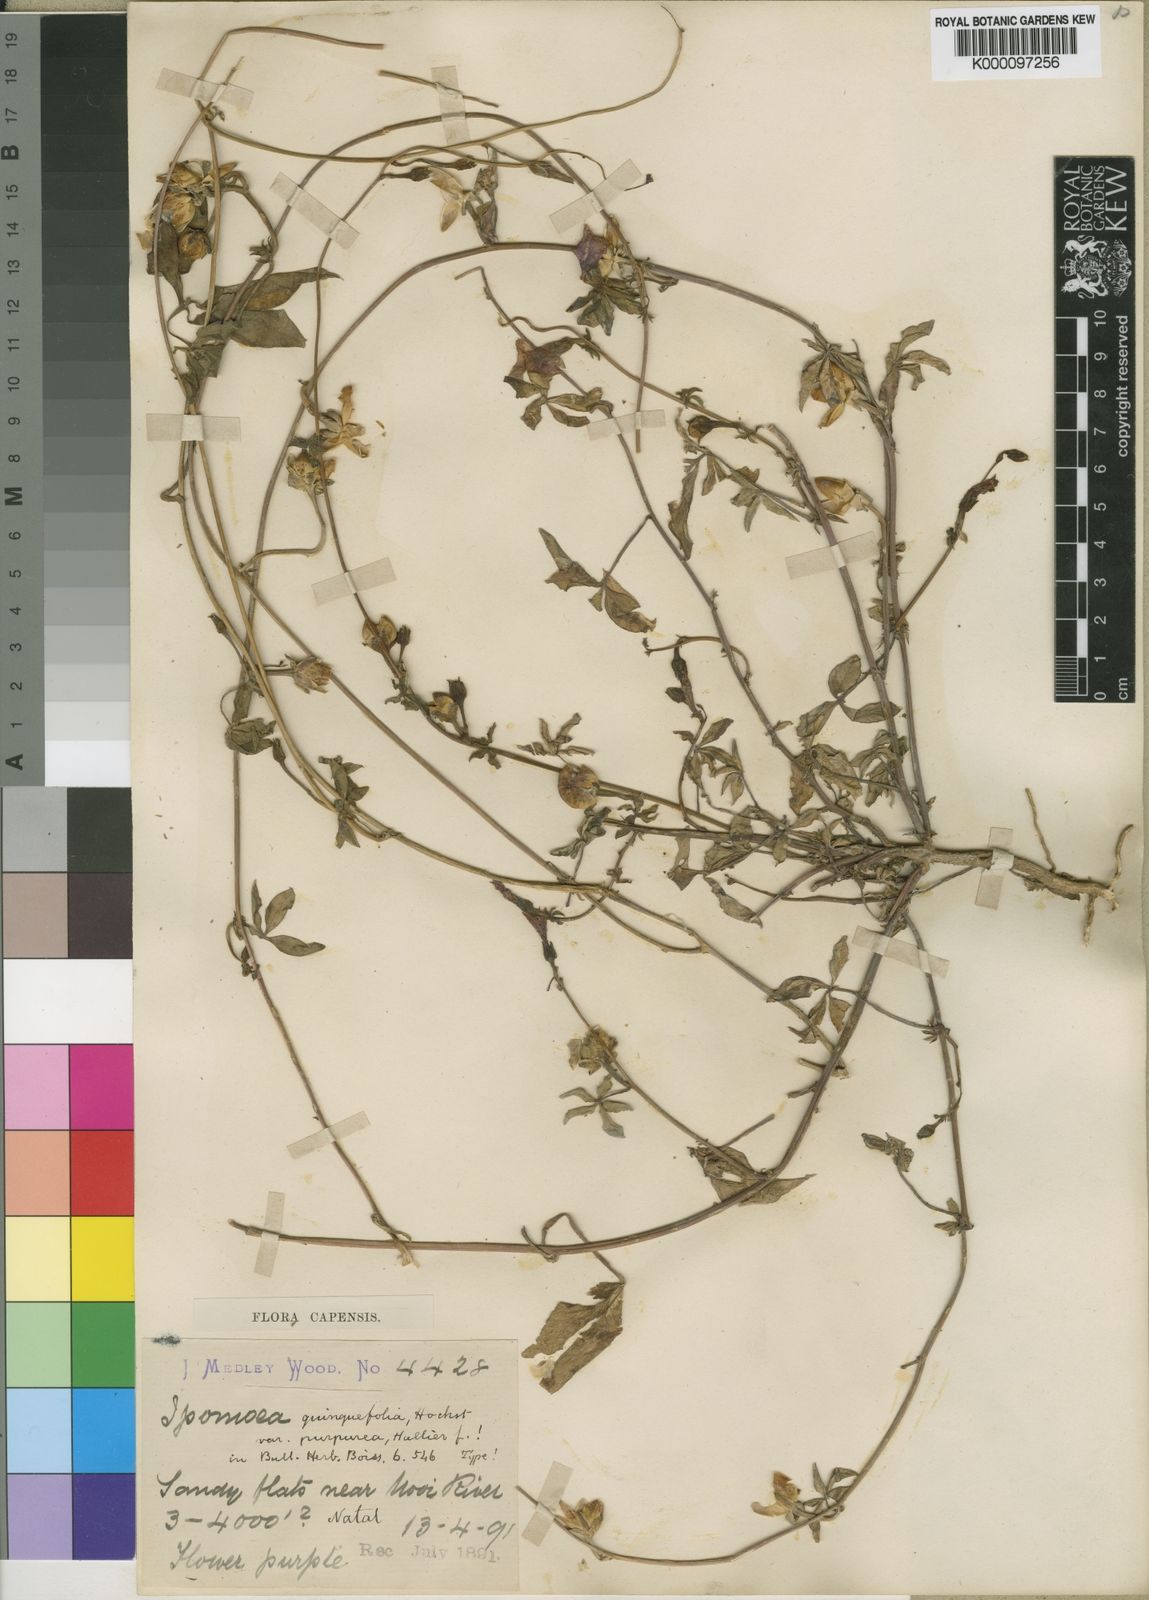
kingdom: Plantae
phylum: Tracheophyta
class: Magnoliopsida
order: Solanales
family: Convolvulaceae
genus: Ipomoea
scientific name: Ipomoea hochstetteri
